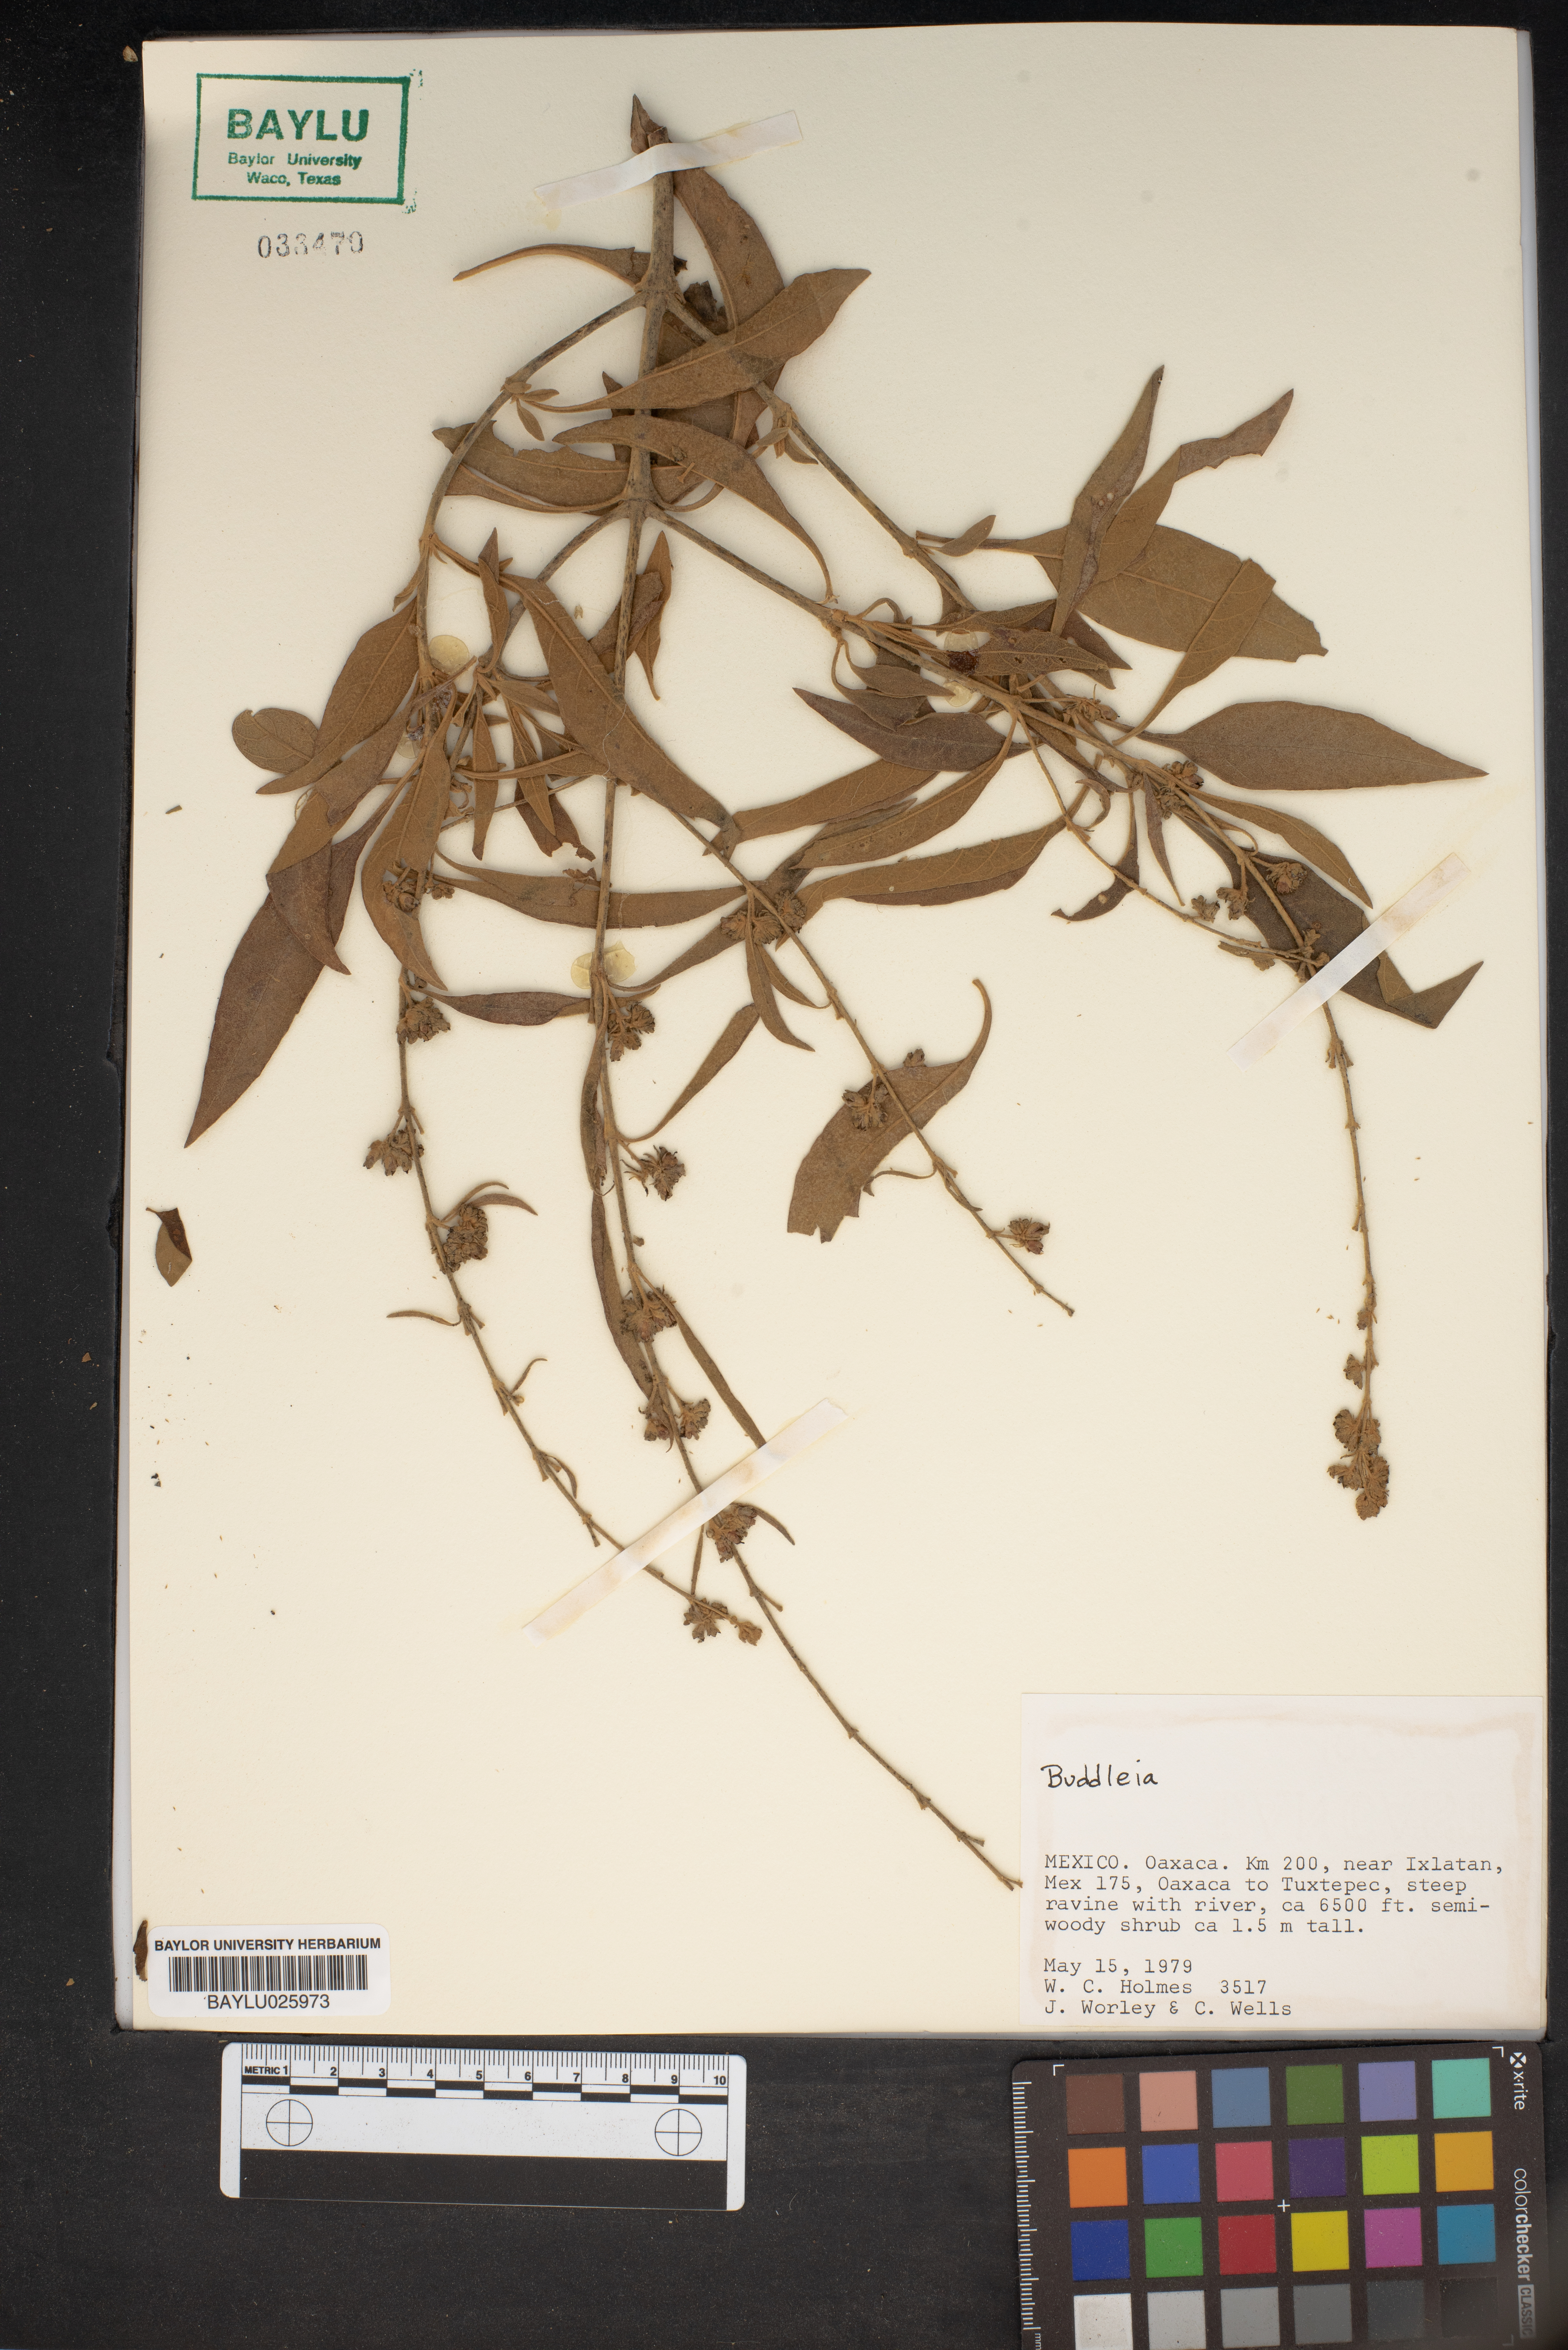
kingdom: Plantae
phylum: Tracheophyta
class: Magnoliopsida
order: Lamiales
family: Scrophulariaceae
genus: Buddleja
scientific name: Buddleja
